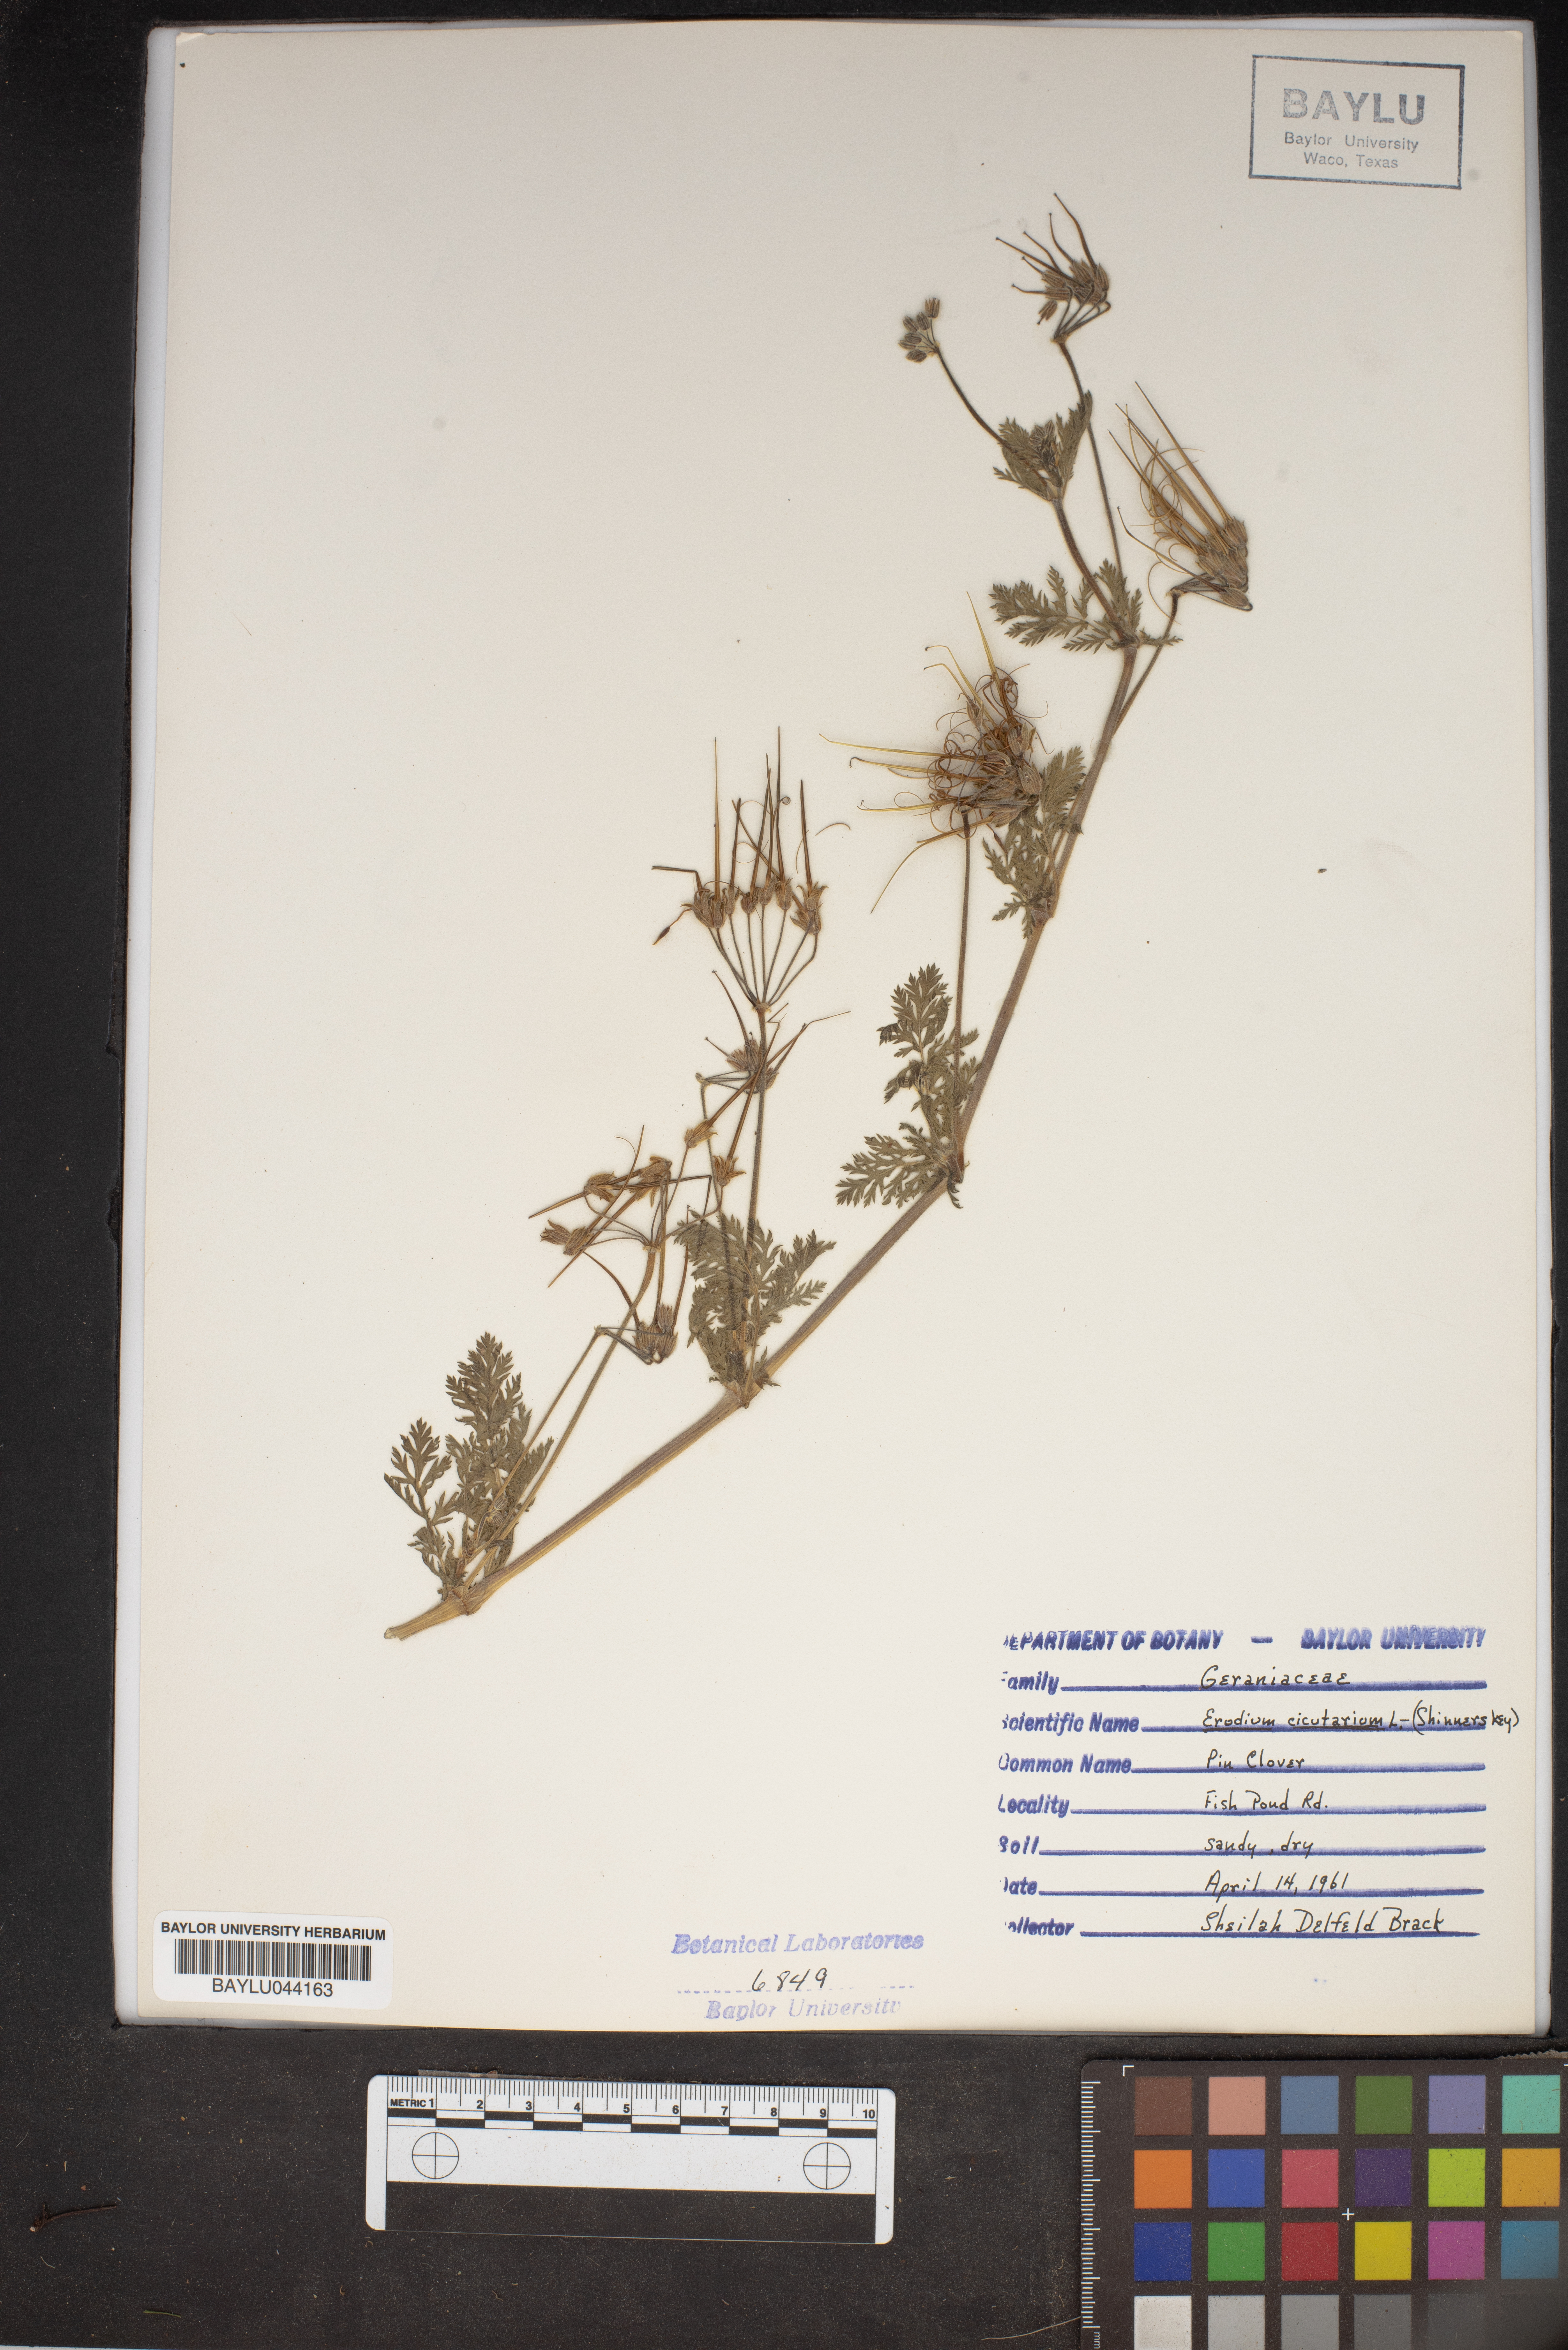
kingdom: Plantae
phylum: Tracheophyta
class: Magnoliopsida
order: Geraniales
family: Geraniaceae
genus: Erodium
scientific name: Erodium cicutarium
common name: Common stork's-bill
